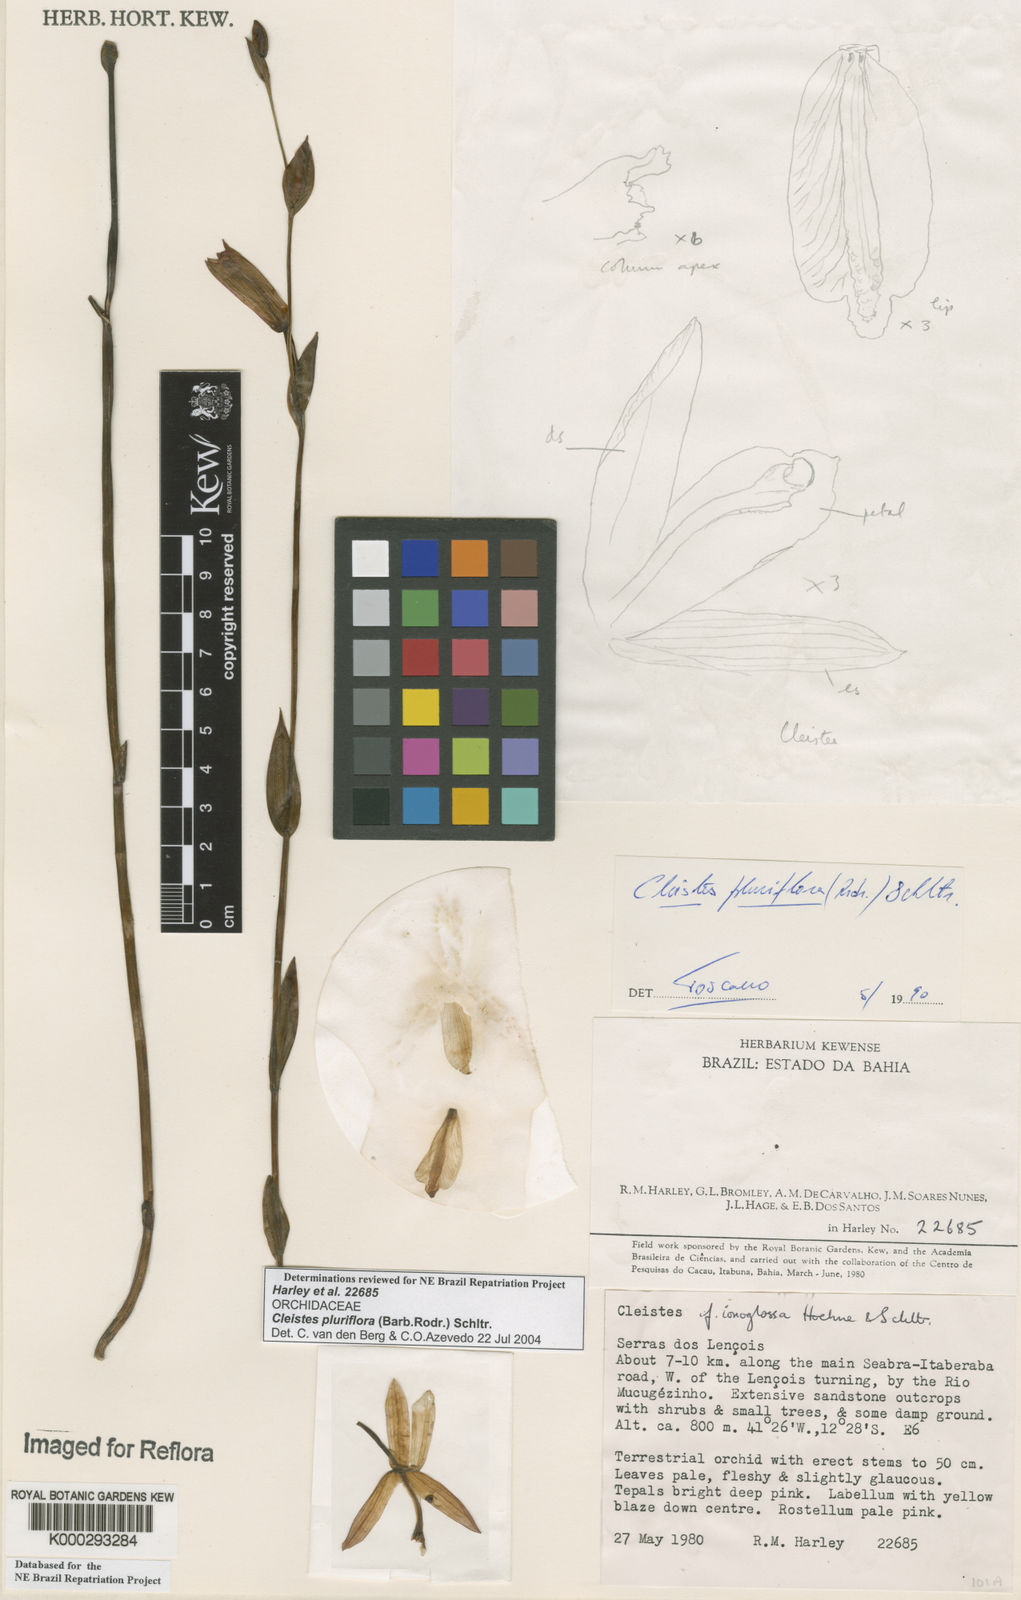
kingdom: Plantae
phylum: Tracheophyta
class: Liliopsida
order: Asparagales
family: Orchidaceae
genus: Cleistes
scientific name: Cleistes moritzii
